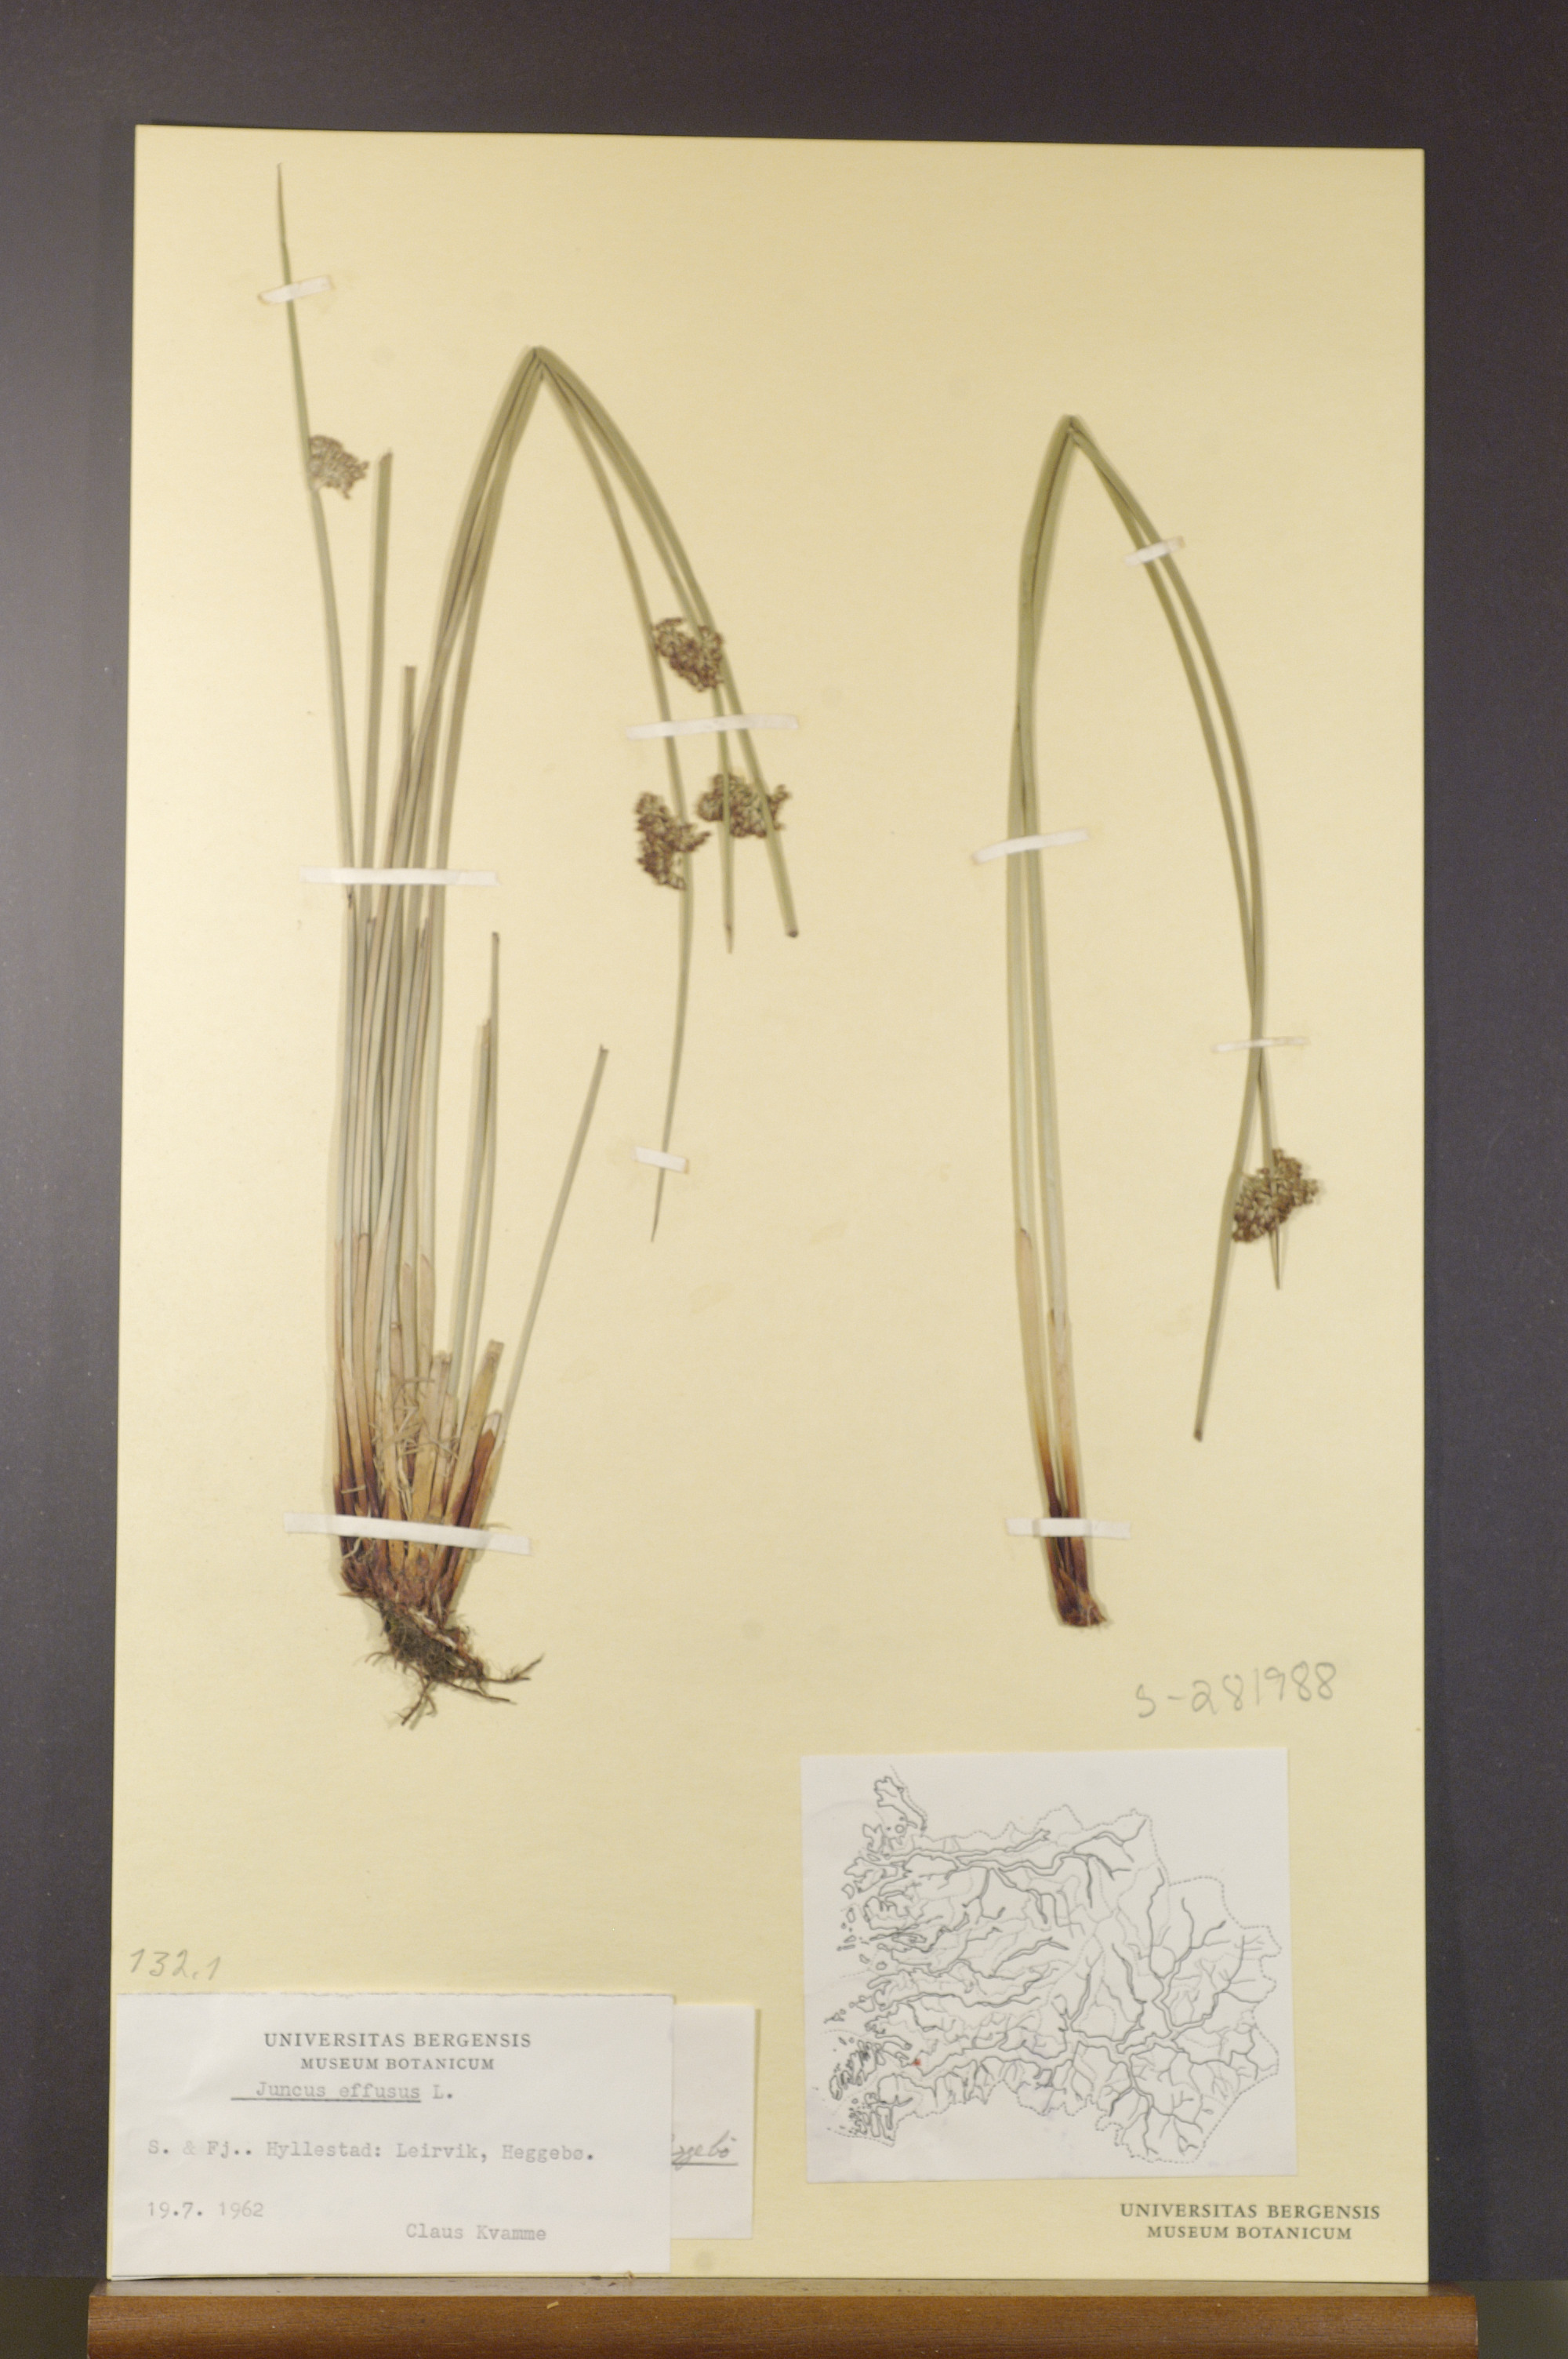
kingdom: Plantae
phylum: Tracheophyta
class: Liliopsida
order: Poales
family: Juncaceae
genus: Juncus
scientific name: Juncus effusus
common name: Soft rush
